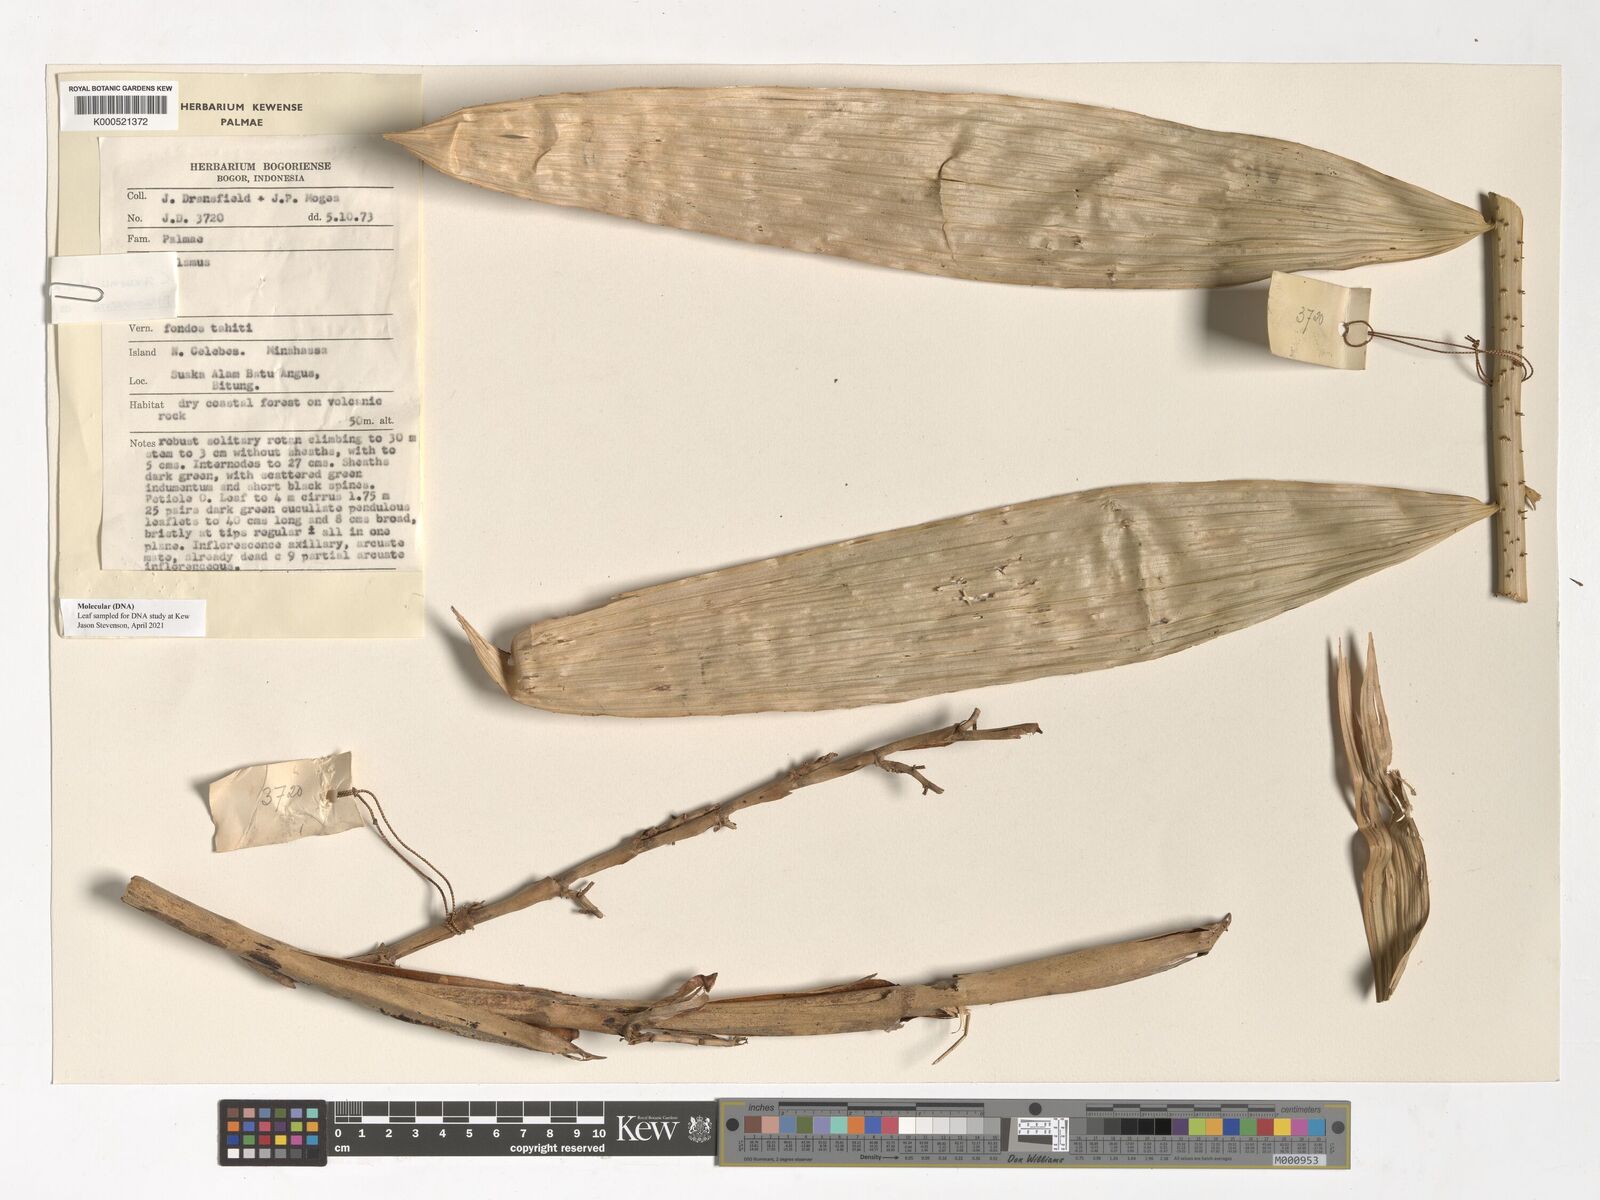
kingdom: Plantae
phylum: Tracheophyta
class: Liliopsida
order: Arecales
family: Arecaceae
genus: Calamus
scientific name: Calamus moseleyanus
